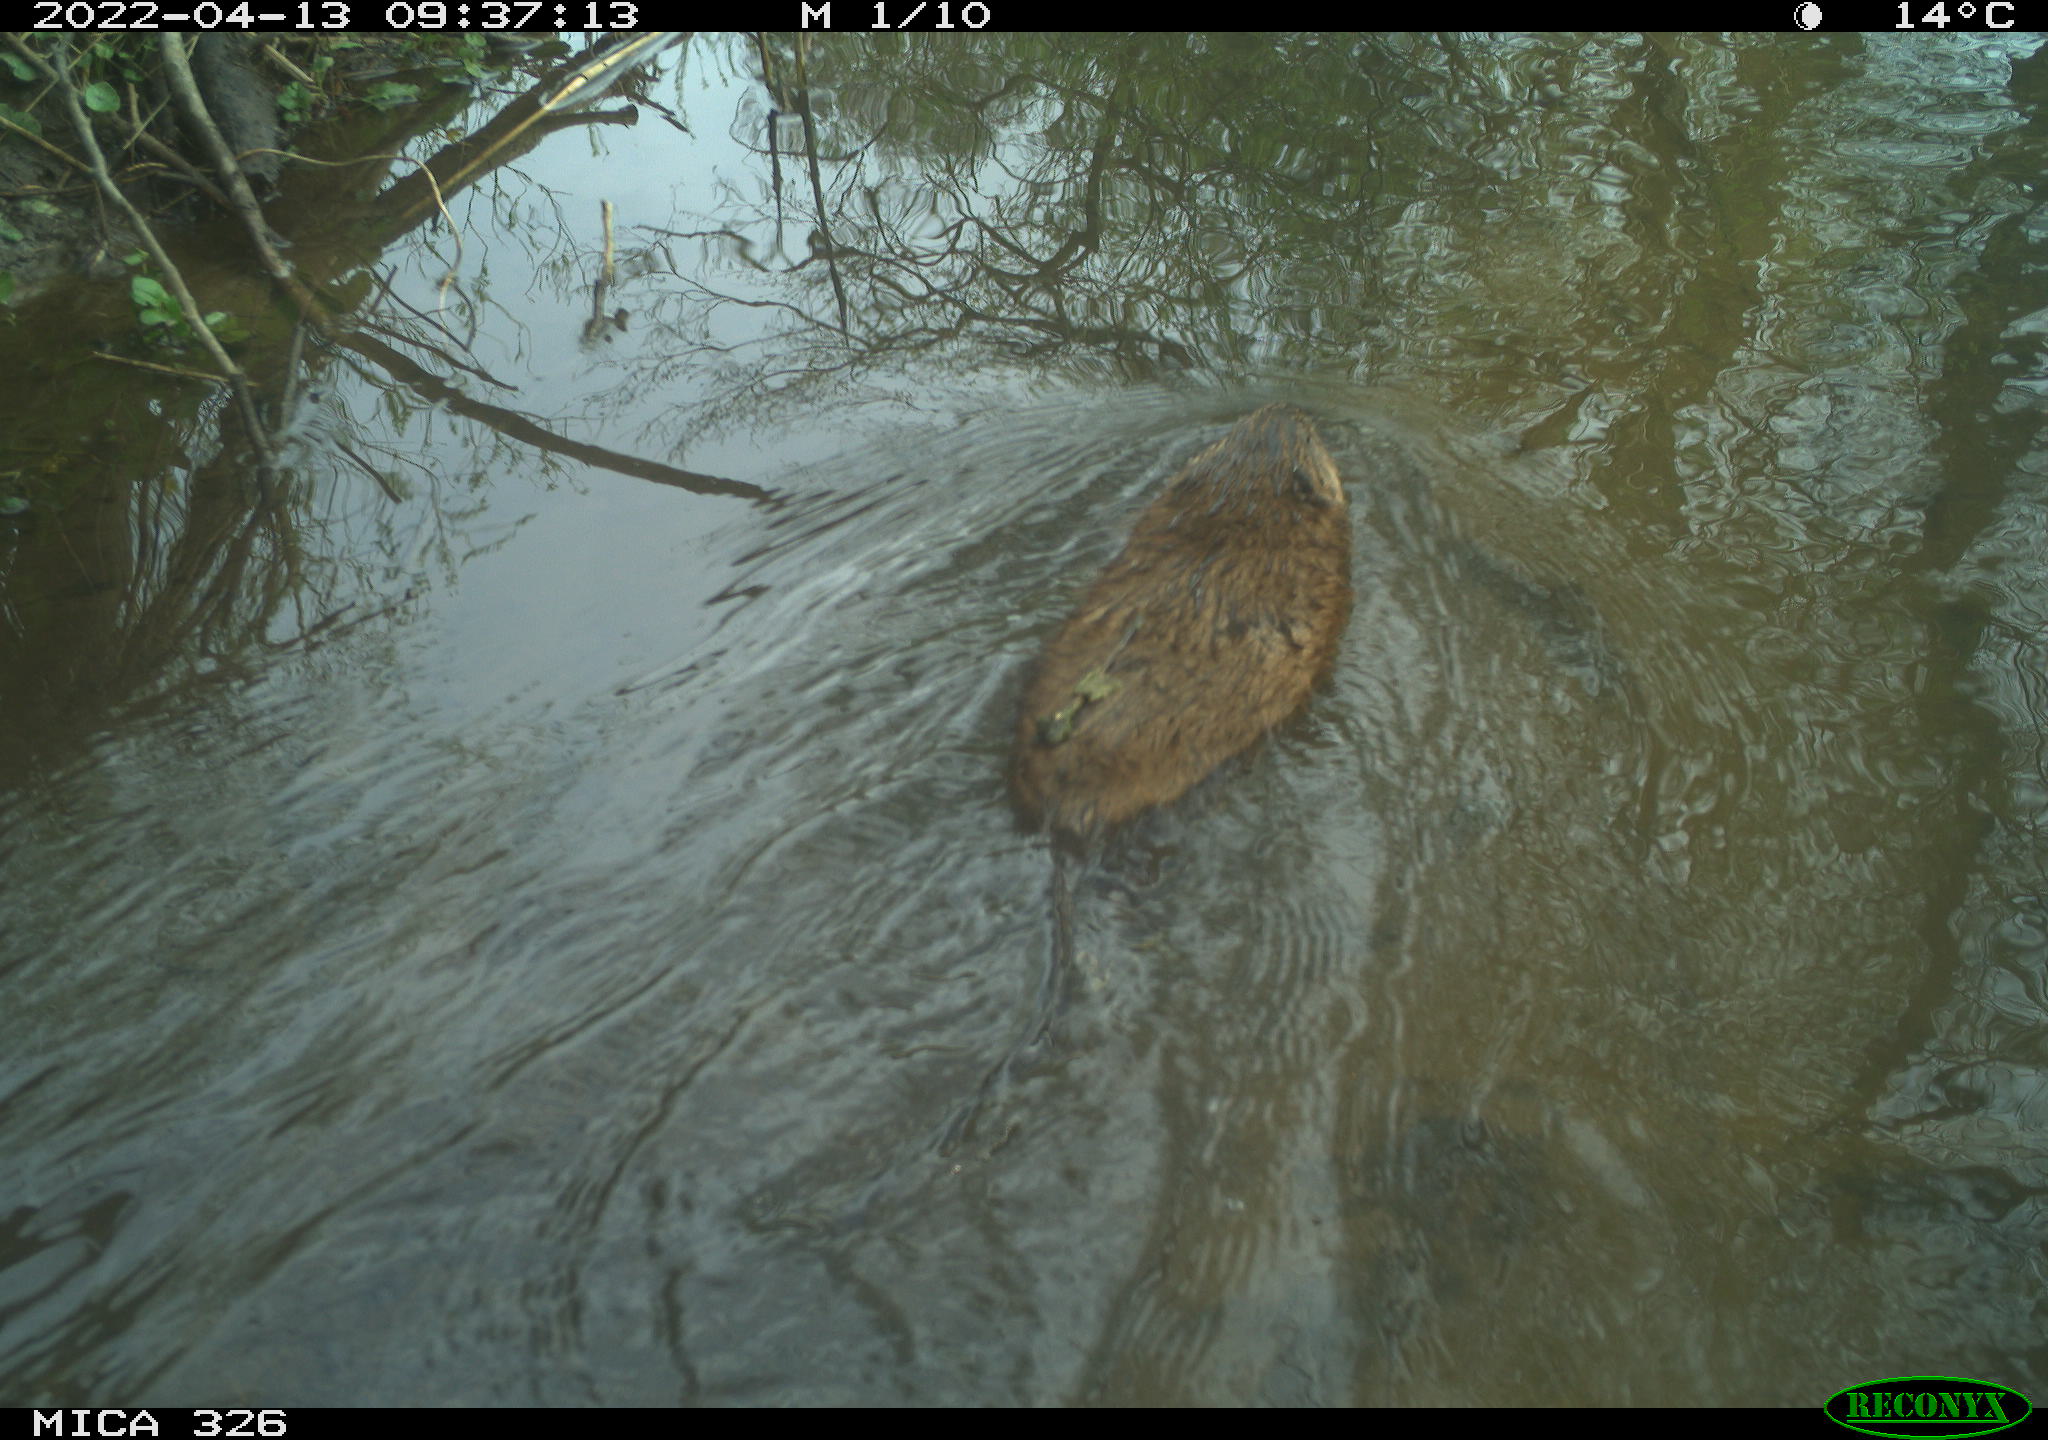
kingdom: Animalia
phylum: Chordata
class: Mammalia
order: Rodentia
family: Cricetidae
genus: Ondatra
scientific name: Ondatra zibethicus
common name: Muskrat
